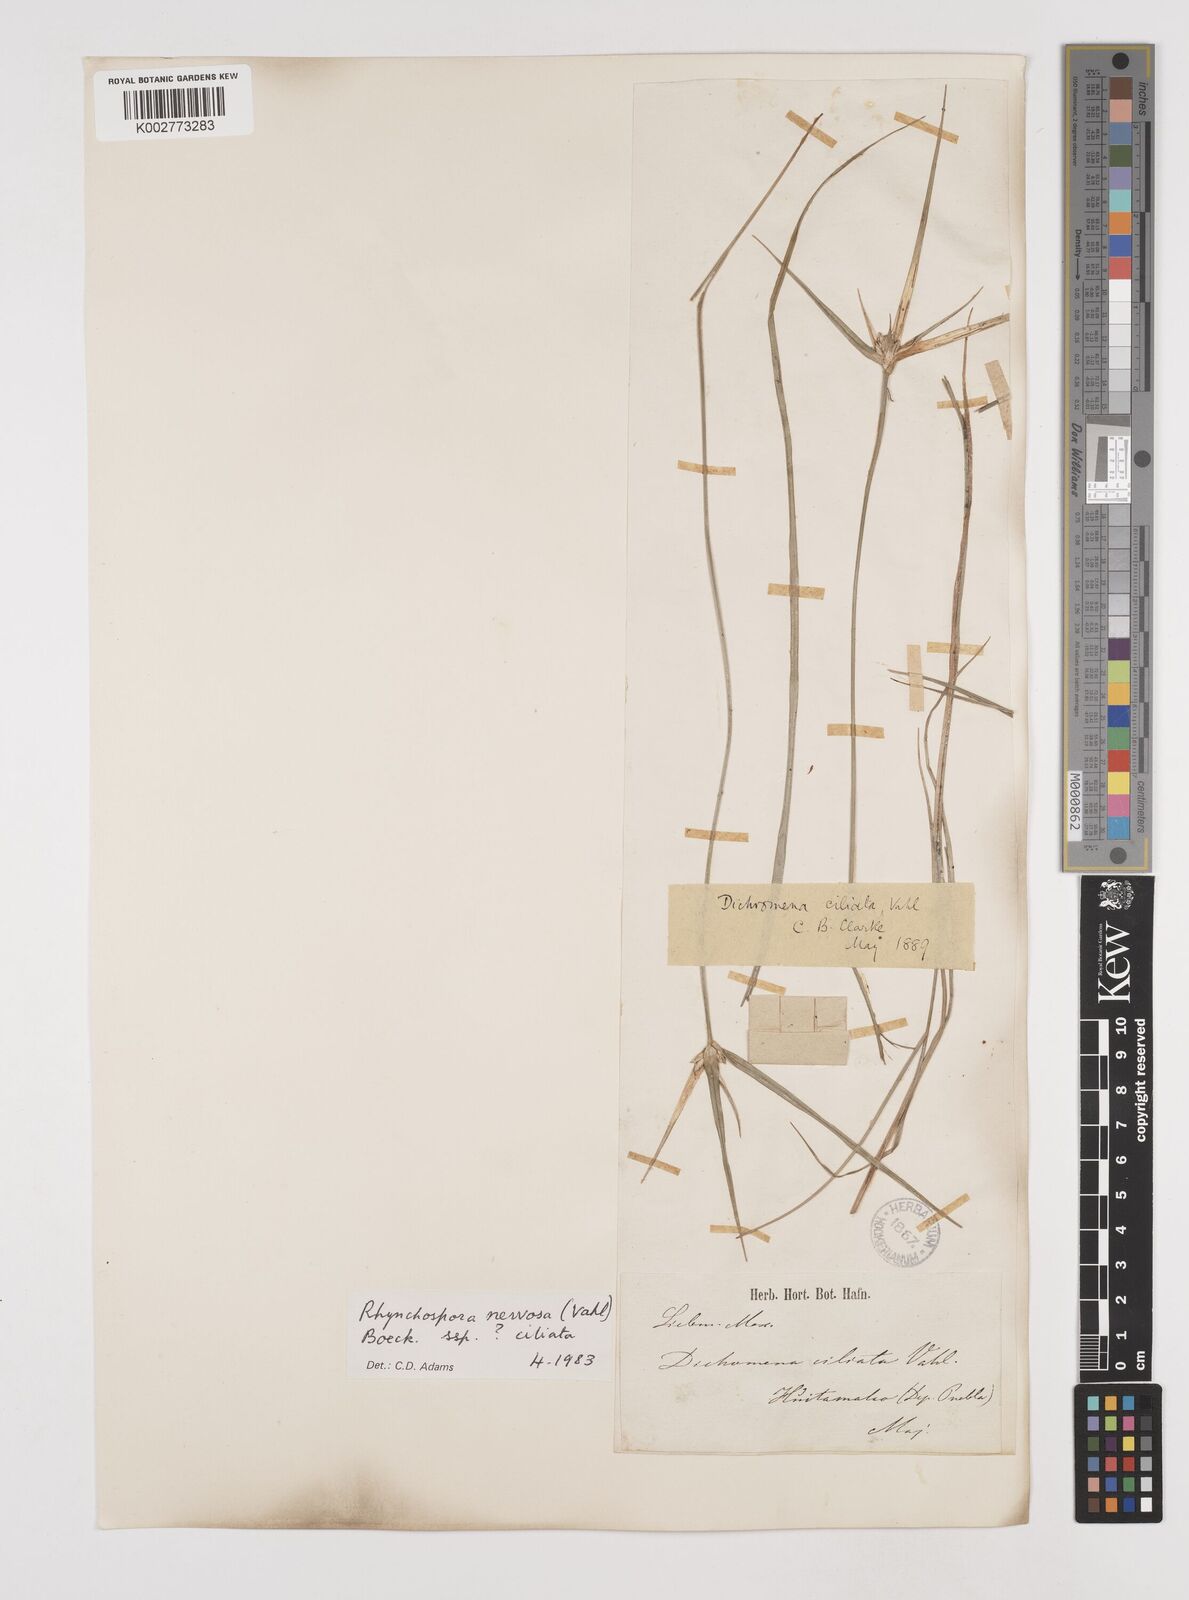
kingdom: Plantae
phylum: Tracheophyta
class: Liliopsida
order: Poales
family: Cyperaceae
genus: Rhynchospora
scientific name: Rhynchospora pura
